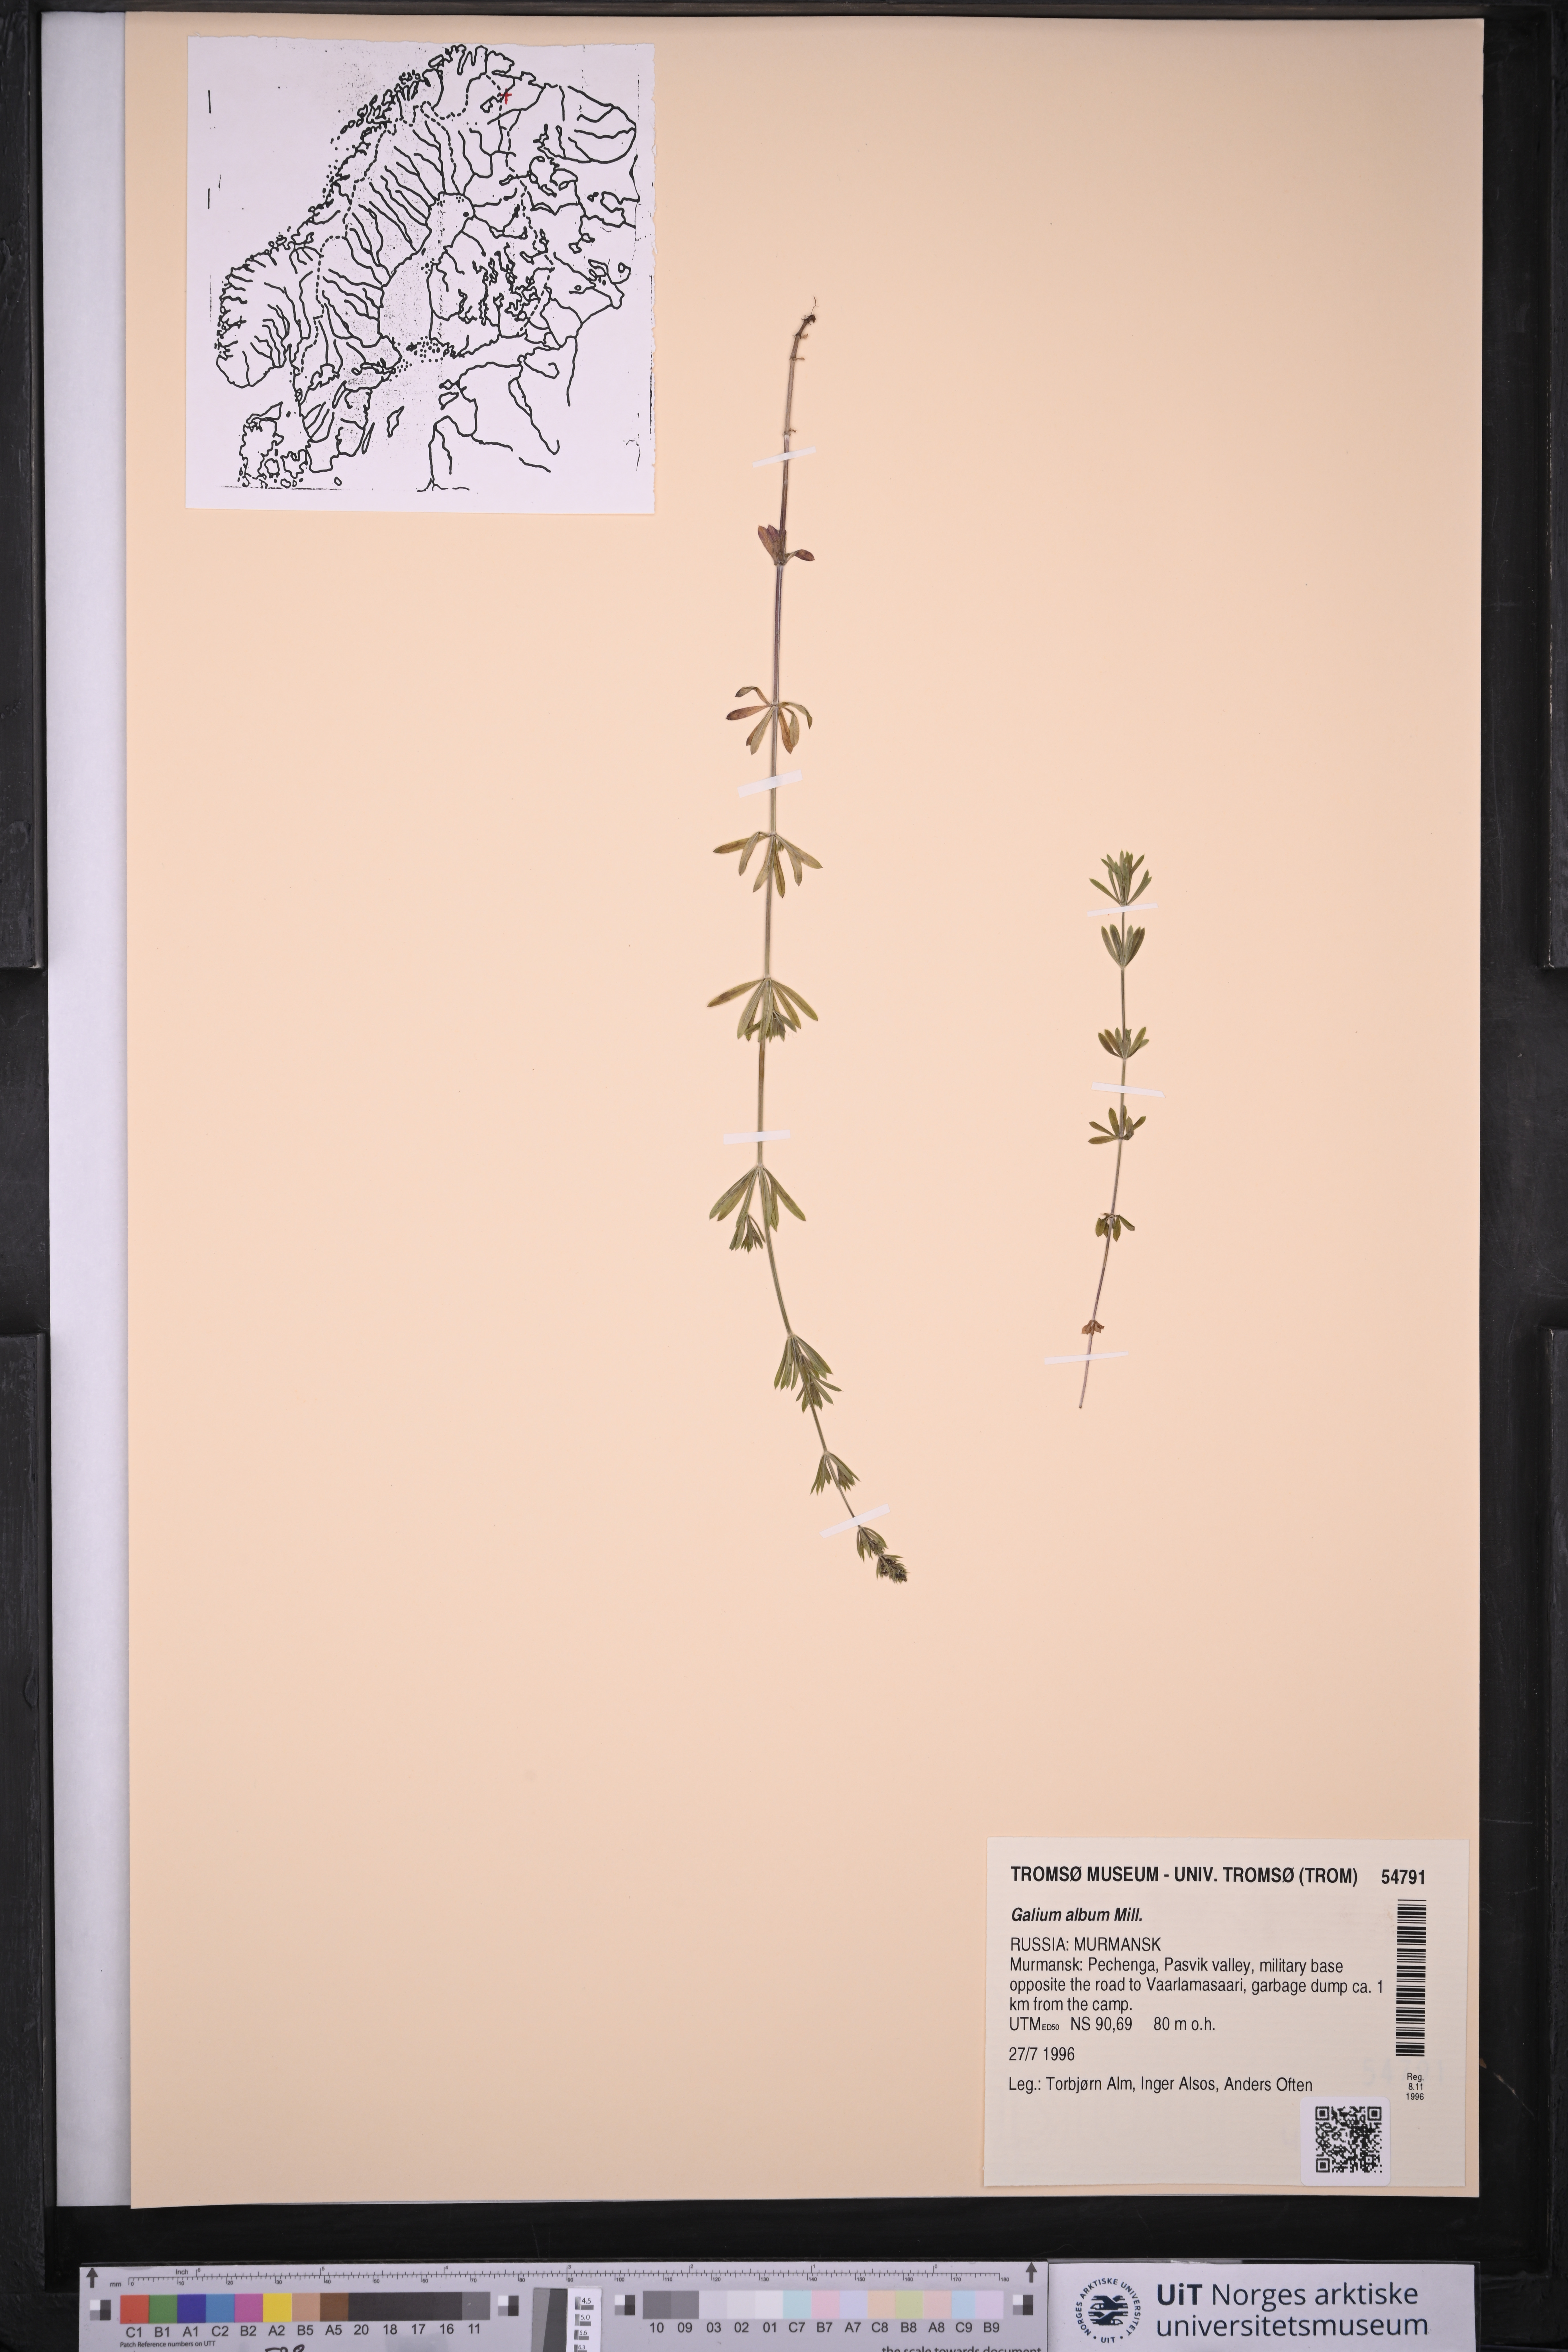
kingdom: Plantae
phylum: Tracheophyta
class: Magnoliopsida
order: Gentianales
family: Rubiaceae
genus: Galium
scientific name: Galium album
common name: White bedstraw
